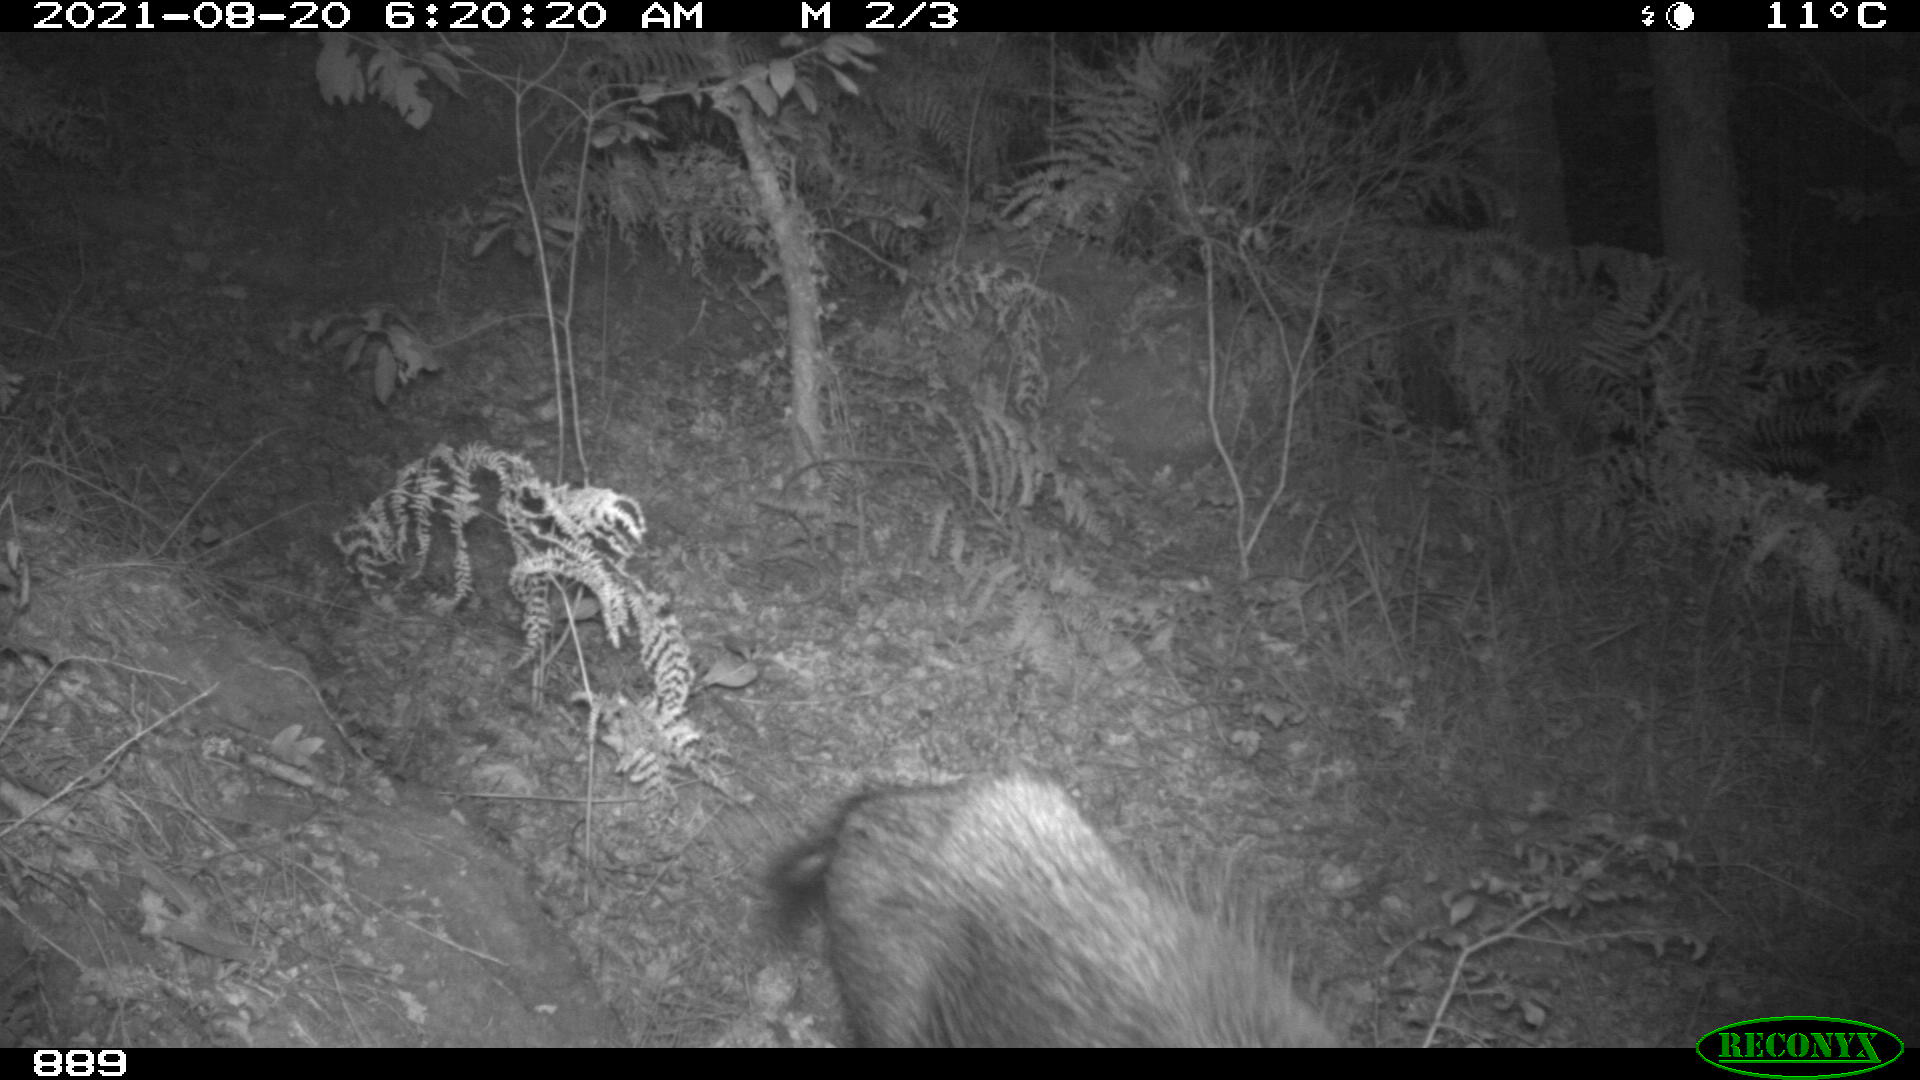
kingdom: Animalia
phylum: Chordata
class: Mammalia
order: Artiodactyla
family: Suidae
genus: Sus
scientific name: Sus scrofa
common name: Wild boar
